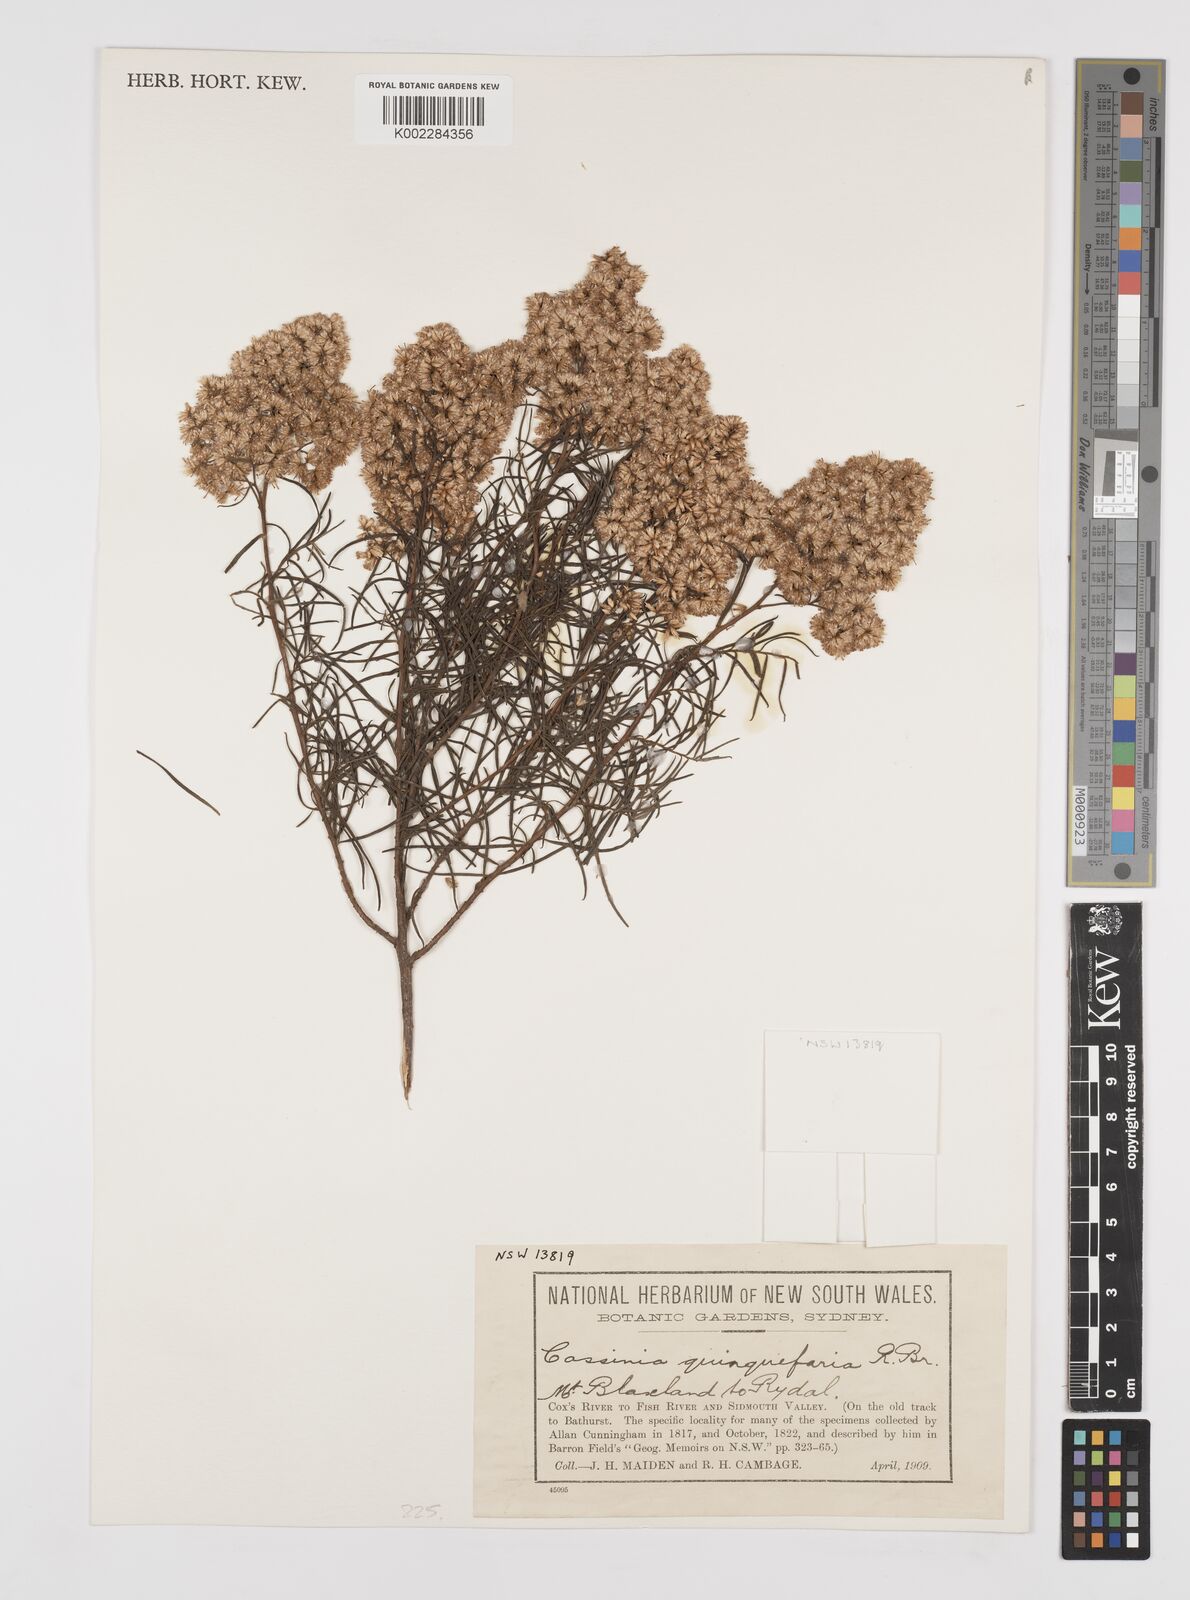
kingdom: Plantae
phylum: Tracheophyta
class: Magnoliopsida
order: Asterales
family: Asteraceae
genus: Cassinia
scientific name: Cassinia quinquefaria
